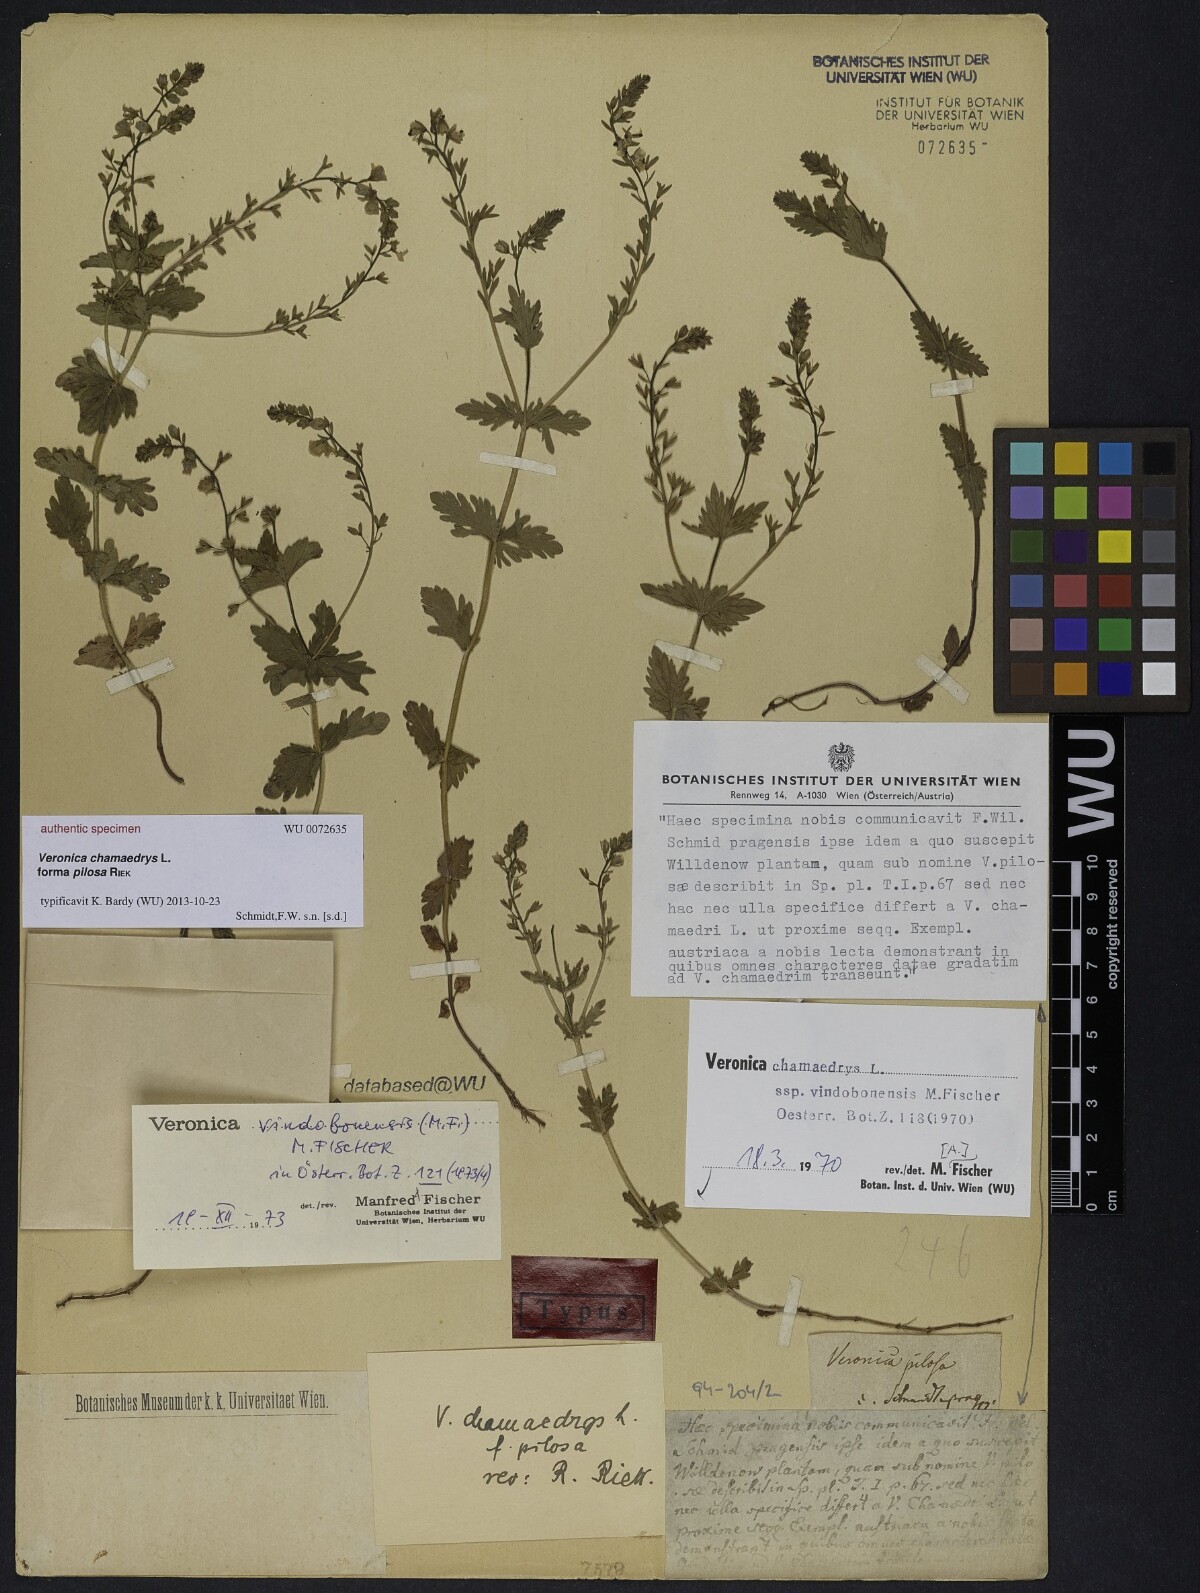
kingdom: Plantae
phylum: Tracheophyta
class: Magnoliopsida
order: Lamiales
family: Plantaginaceae
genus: Veronica
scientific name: Veronica chamaedrys
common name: Germander speedwell
